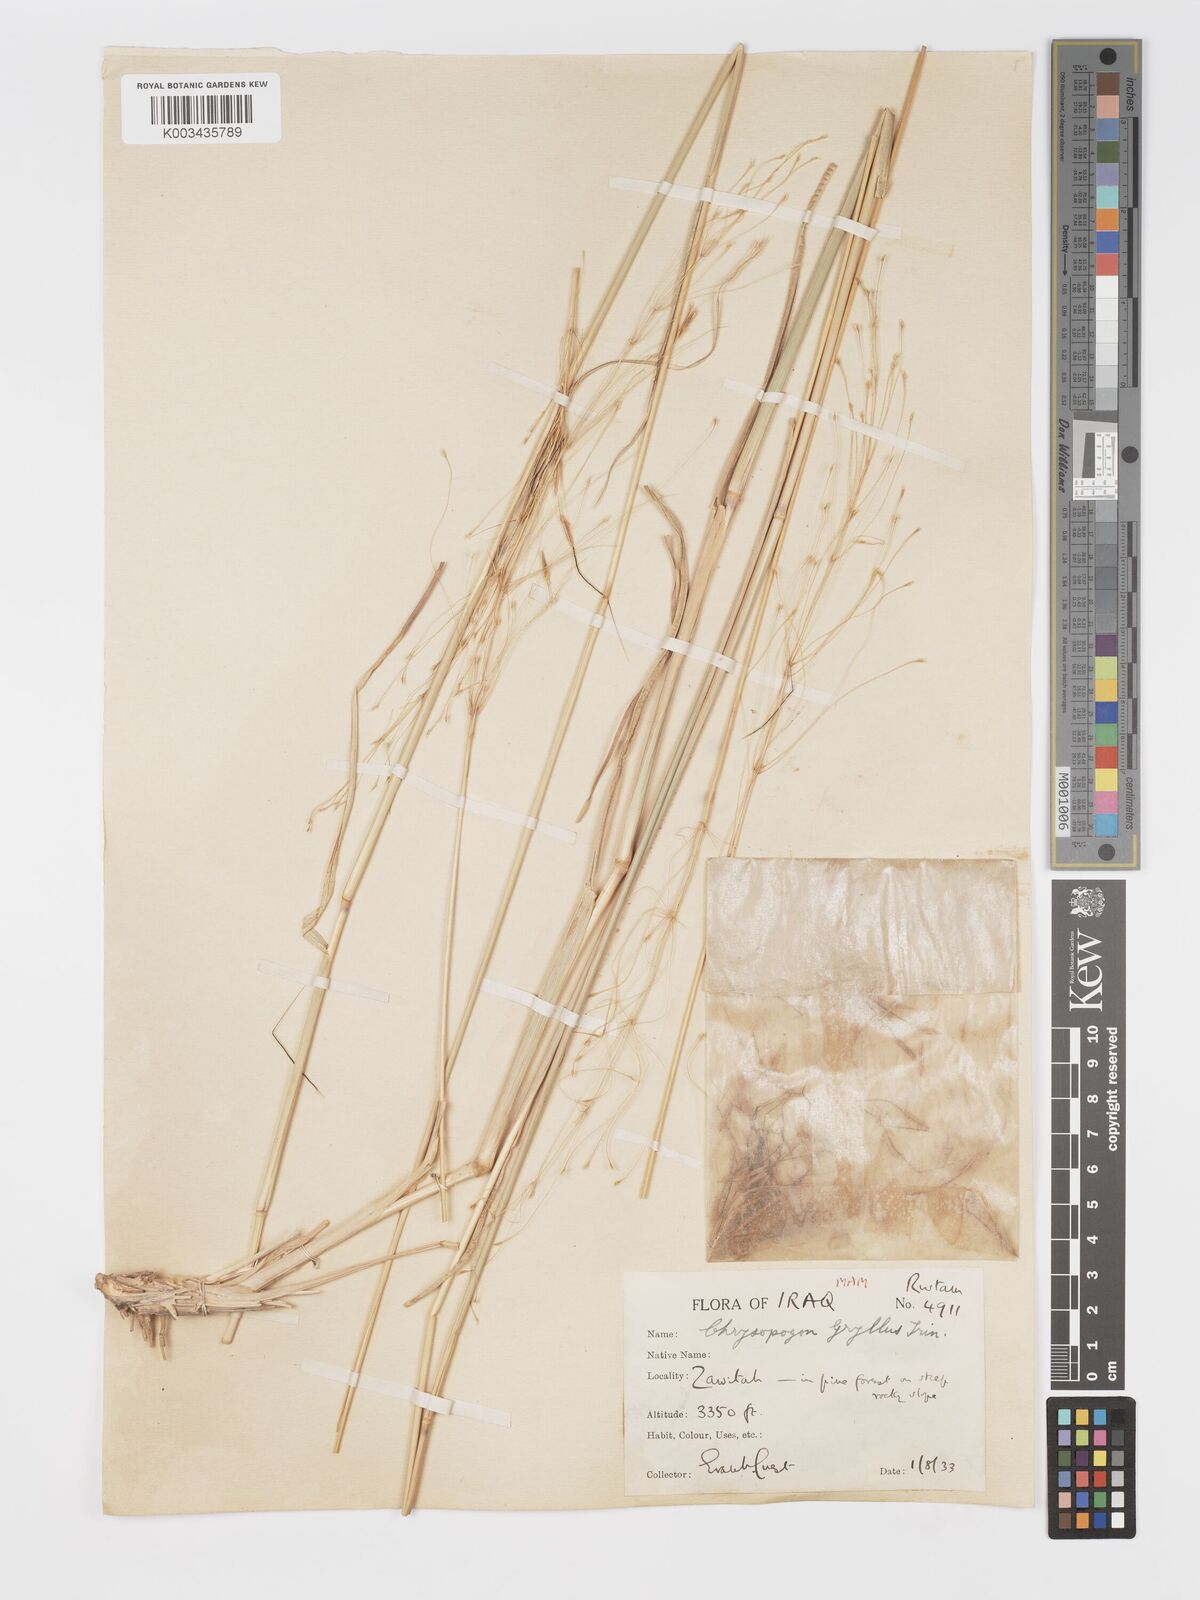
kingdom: Plantae
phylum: Tracheophyta
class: Liliopsida
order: Poales
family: Poaceae
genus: Chrysopogon
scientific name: Chrysopogon gryllus
